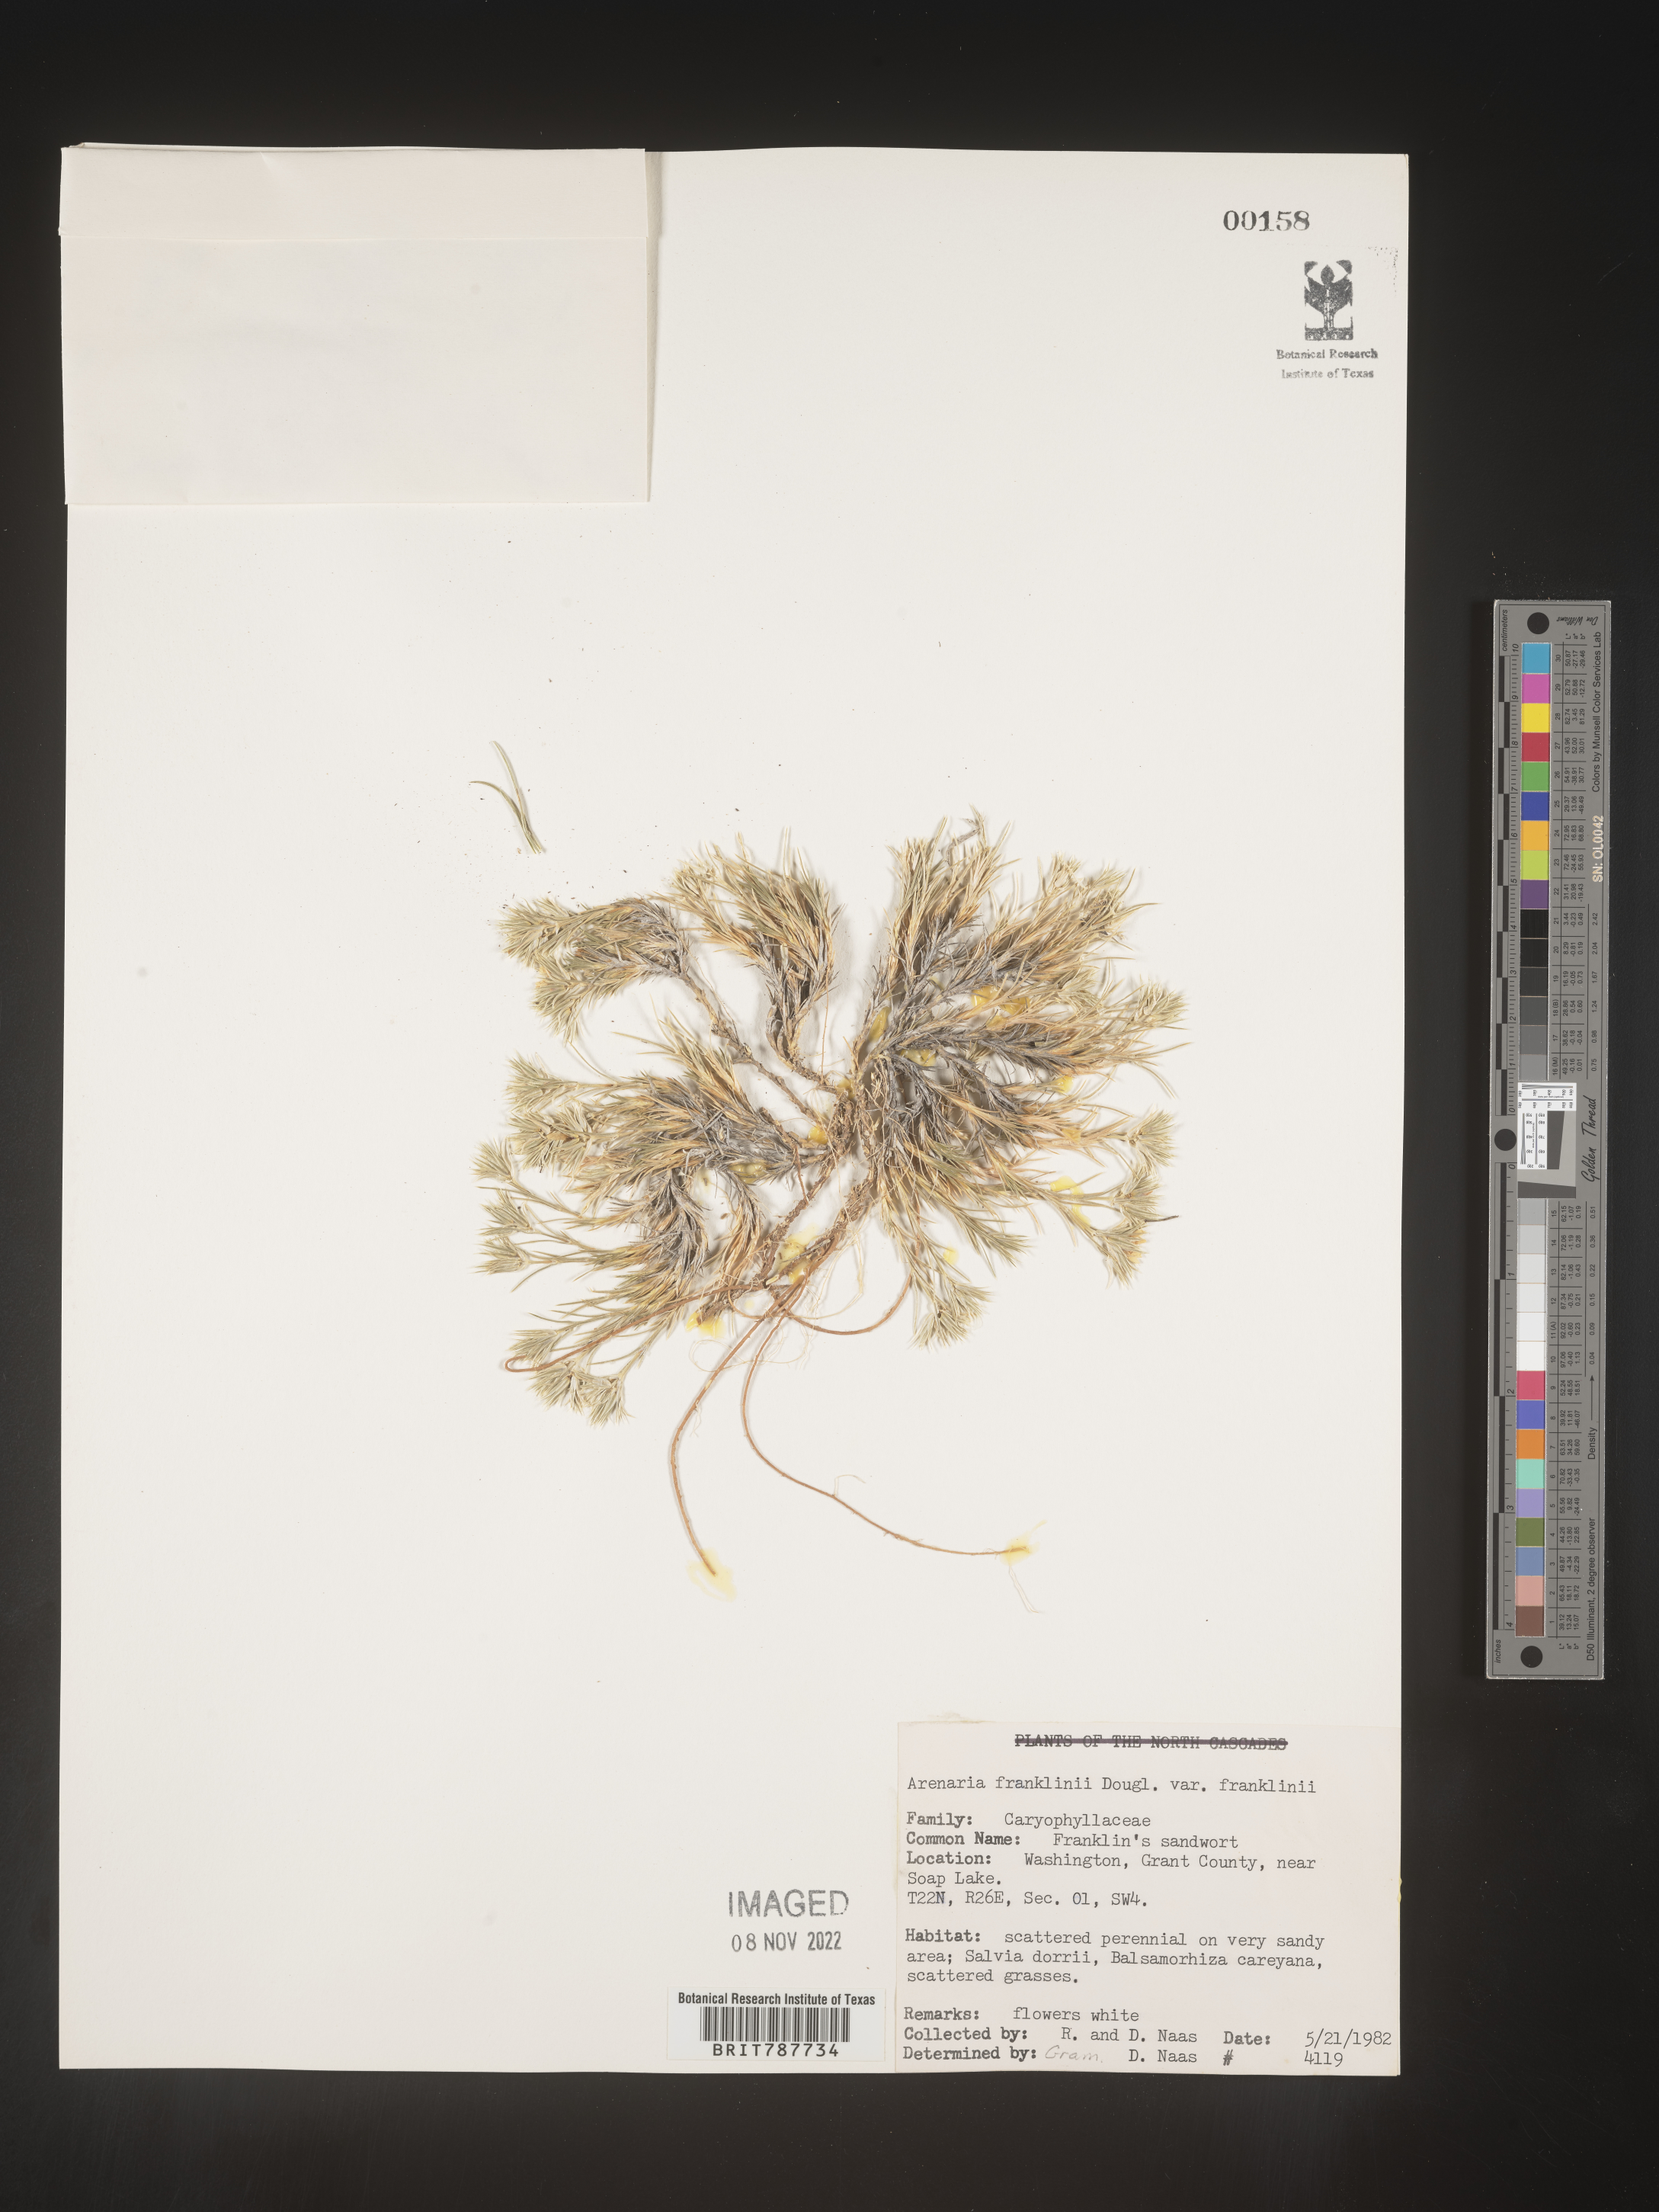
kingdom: Plantae
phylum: Tracheophyta
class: Magnoliopsida
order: Caryophyllales
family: Caryophyllaceae
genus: Arenaria
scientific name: Arenaria
